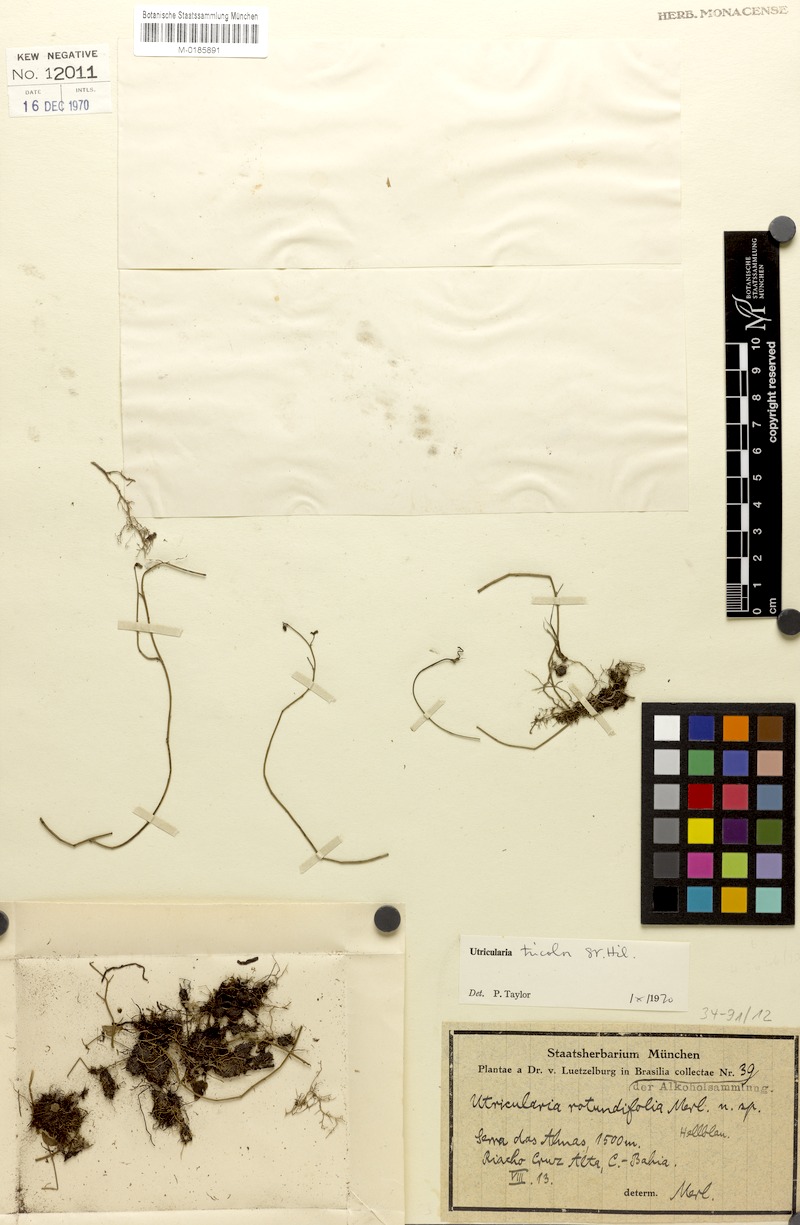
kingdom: Plantae
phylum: Tracheophyta
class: Magnoliopsida
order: Lamiales
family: Lentibulariaceae
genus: Utricularia
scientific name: Utricularia tricolor
